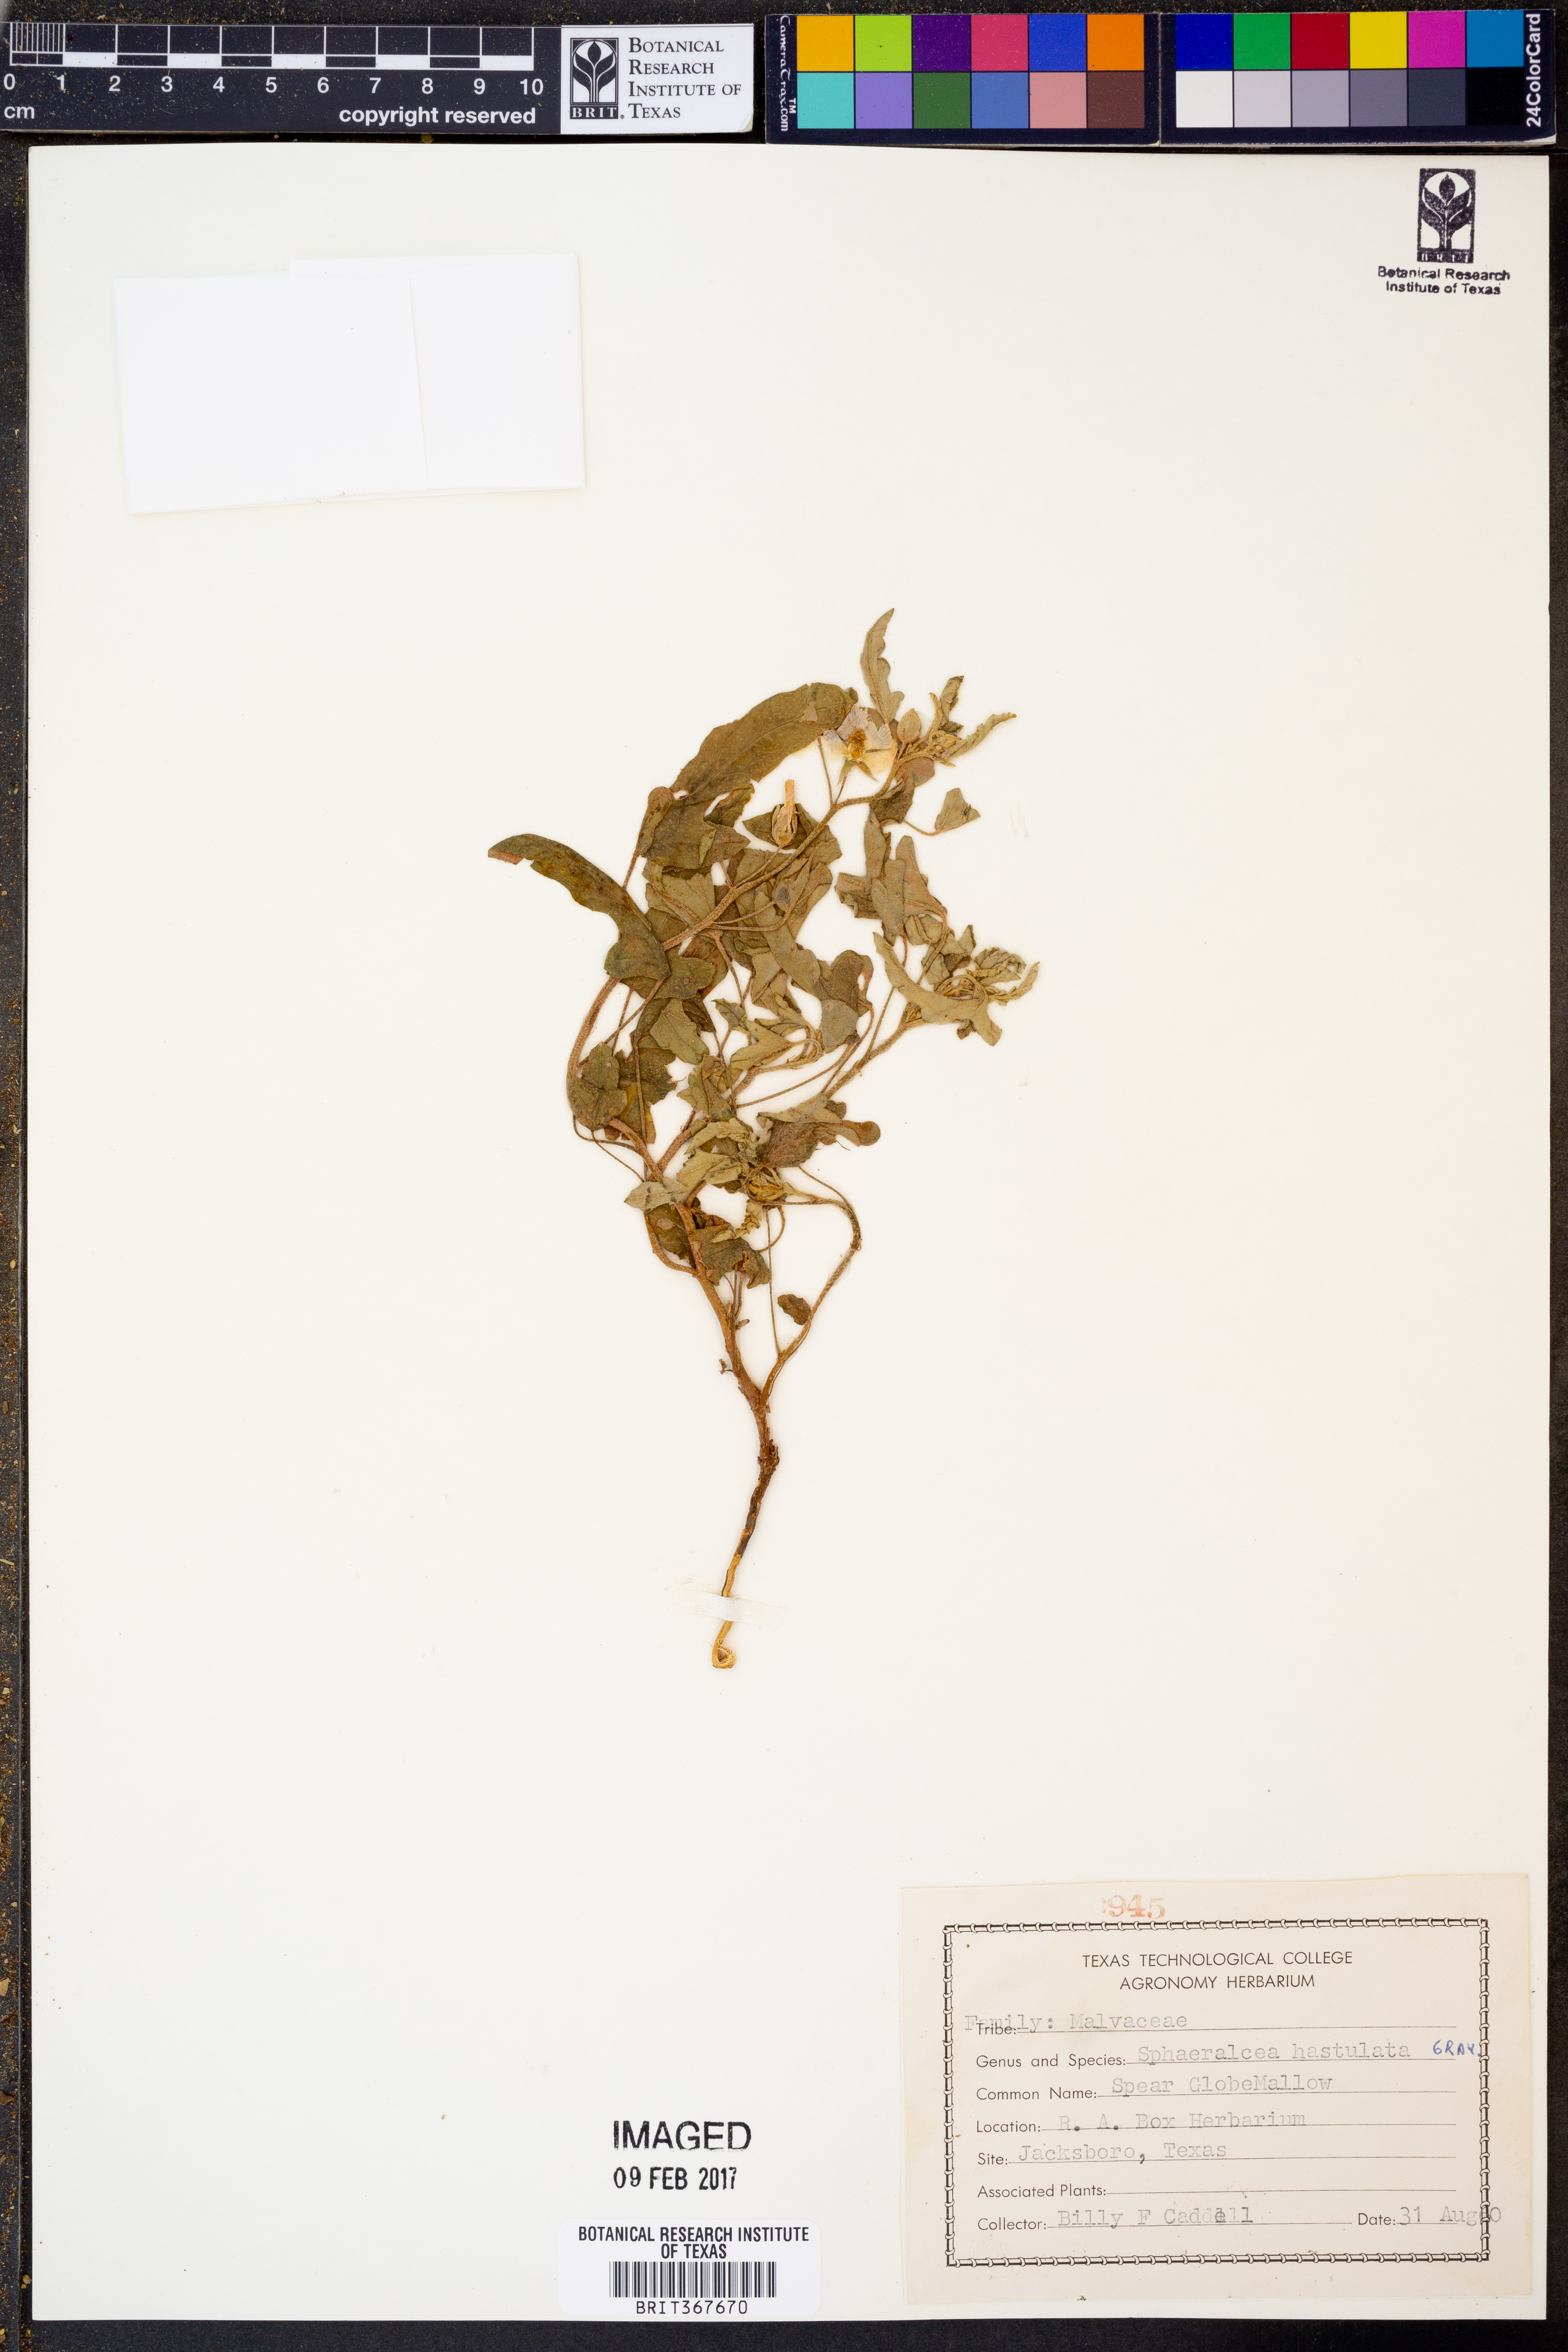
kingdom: Plantae
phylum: Tracheophyta
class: Magnoliopsida
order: Malvales
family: Malvaceae
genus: Sphaeralcea
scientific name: Sphaeralcea hastulata
